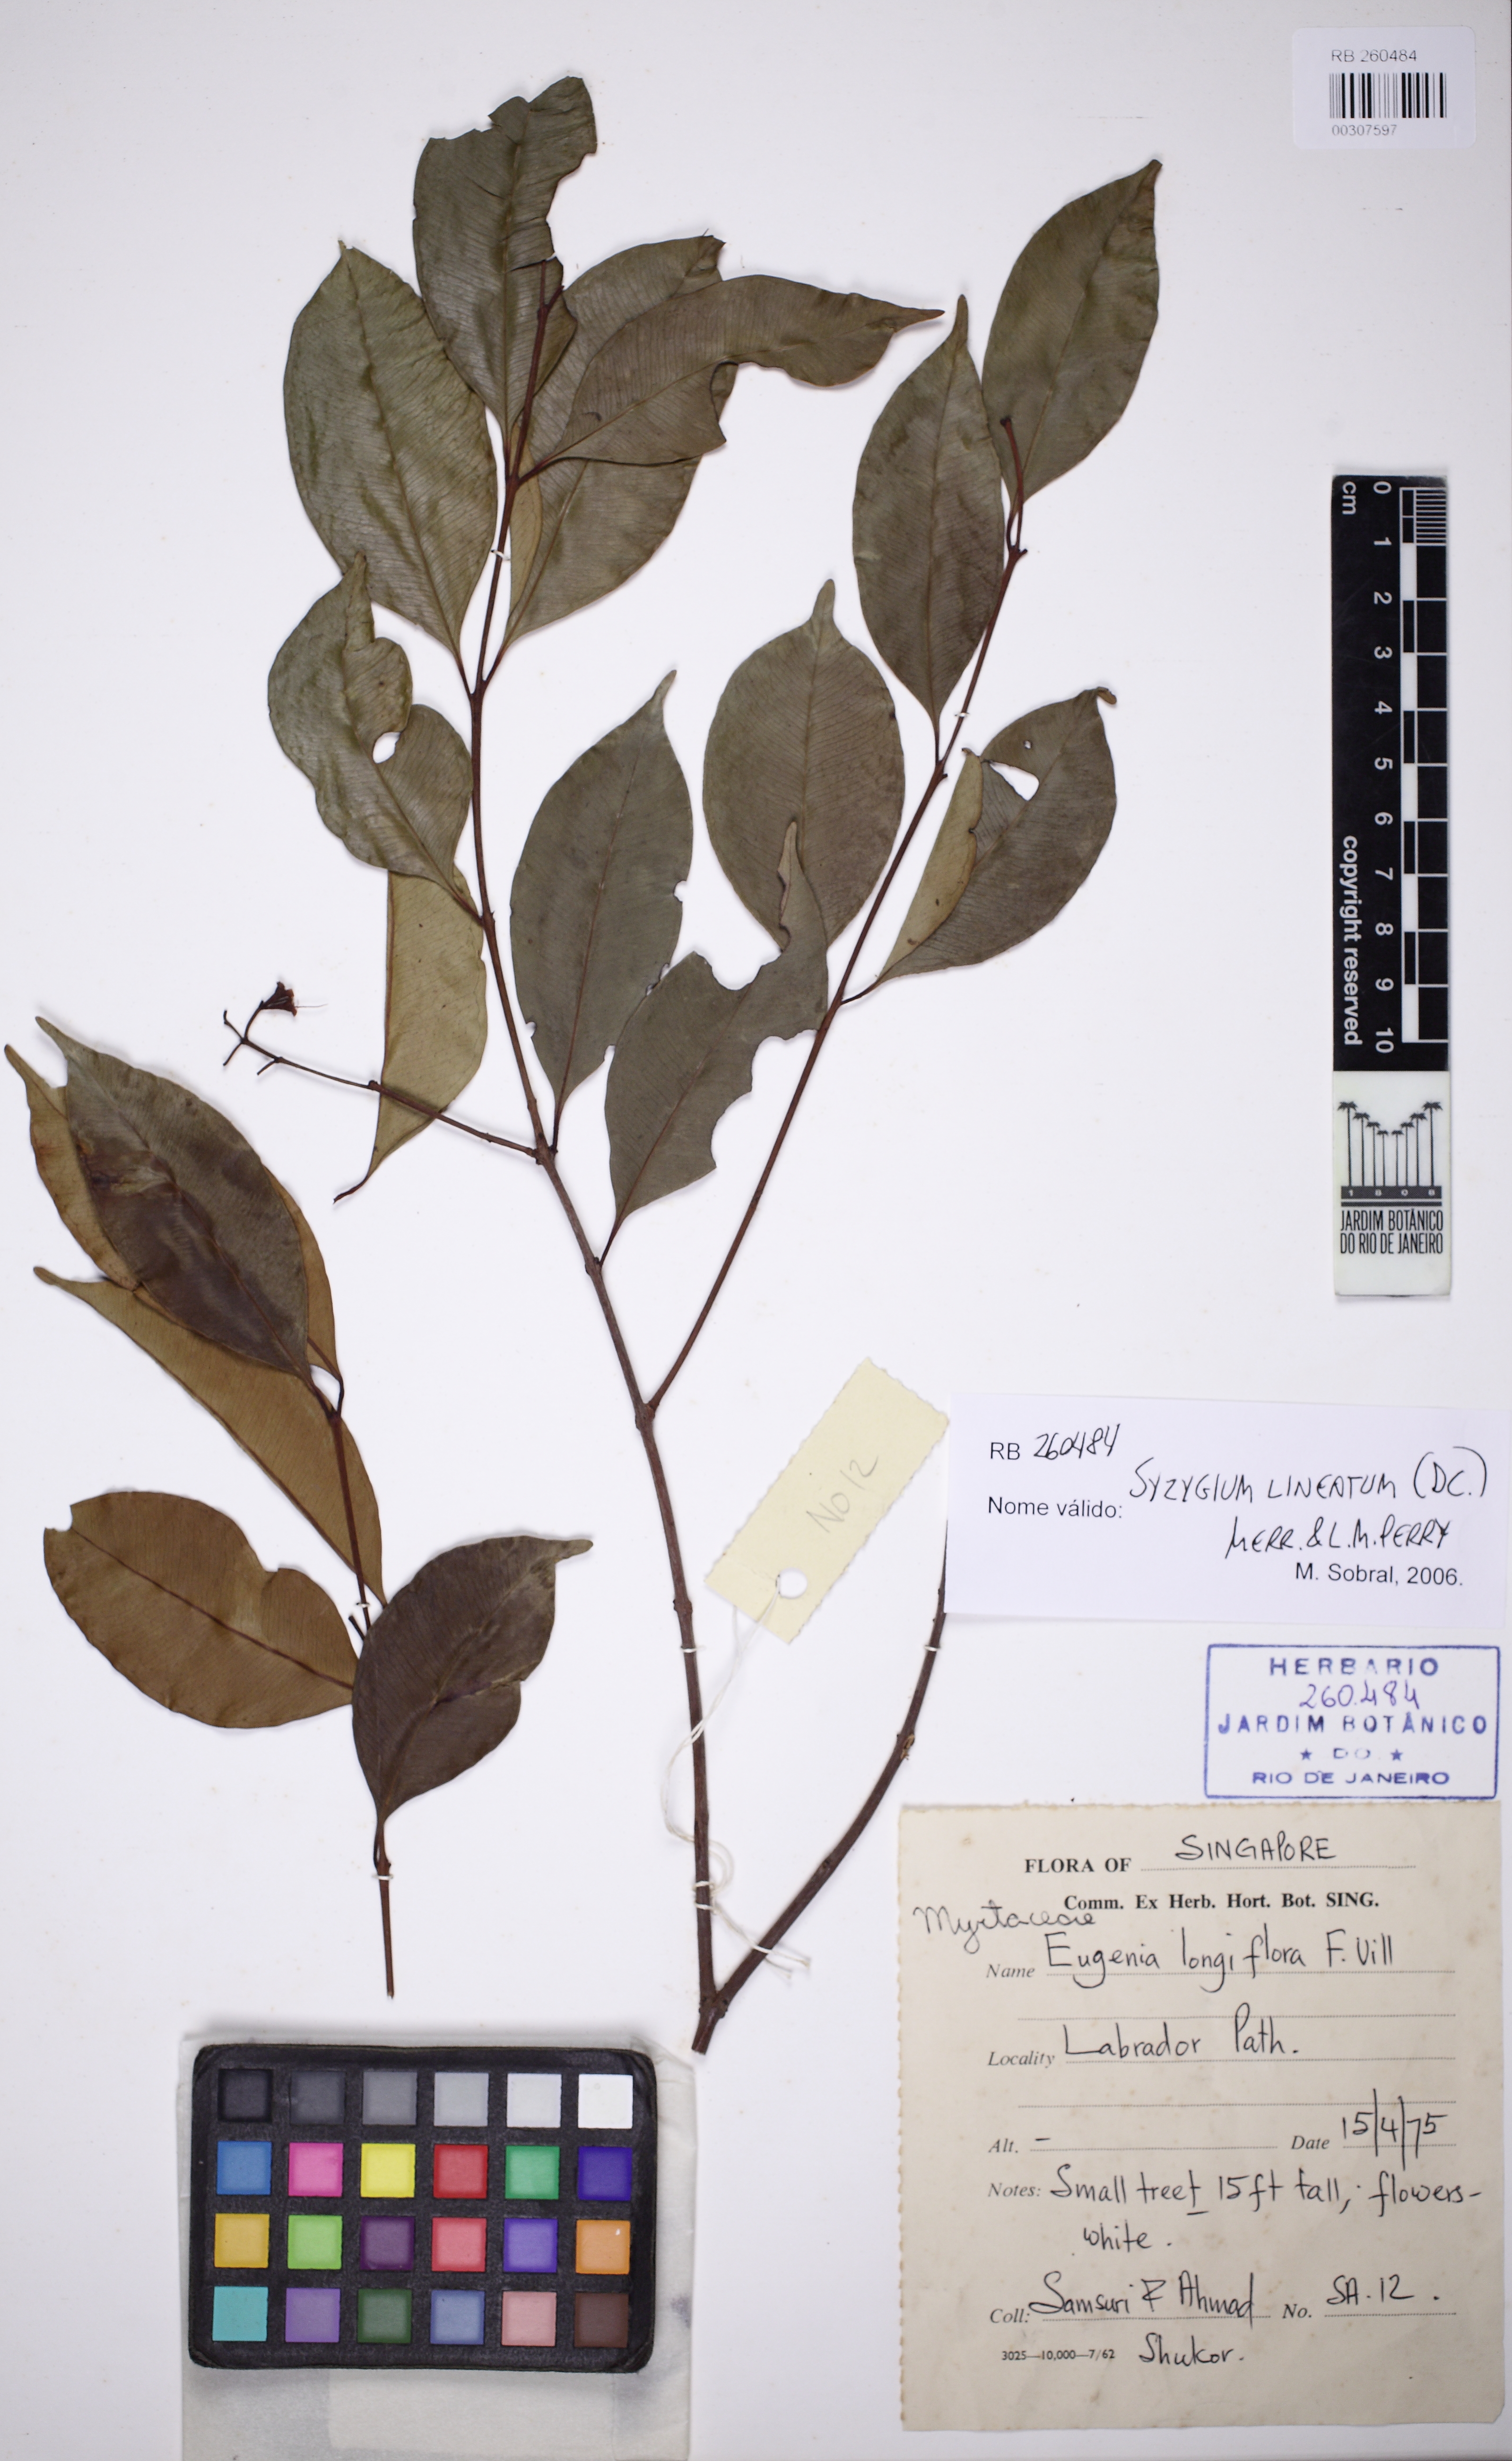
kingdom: Plantae
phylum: Tracheophyta
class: Magnoliopsida
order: Myrtales
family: Myrtaceae
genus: Syzygium
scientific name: Syzygium lineatum
